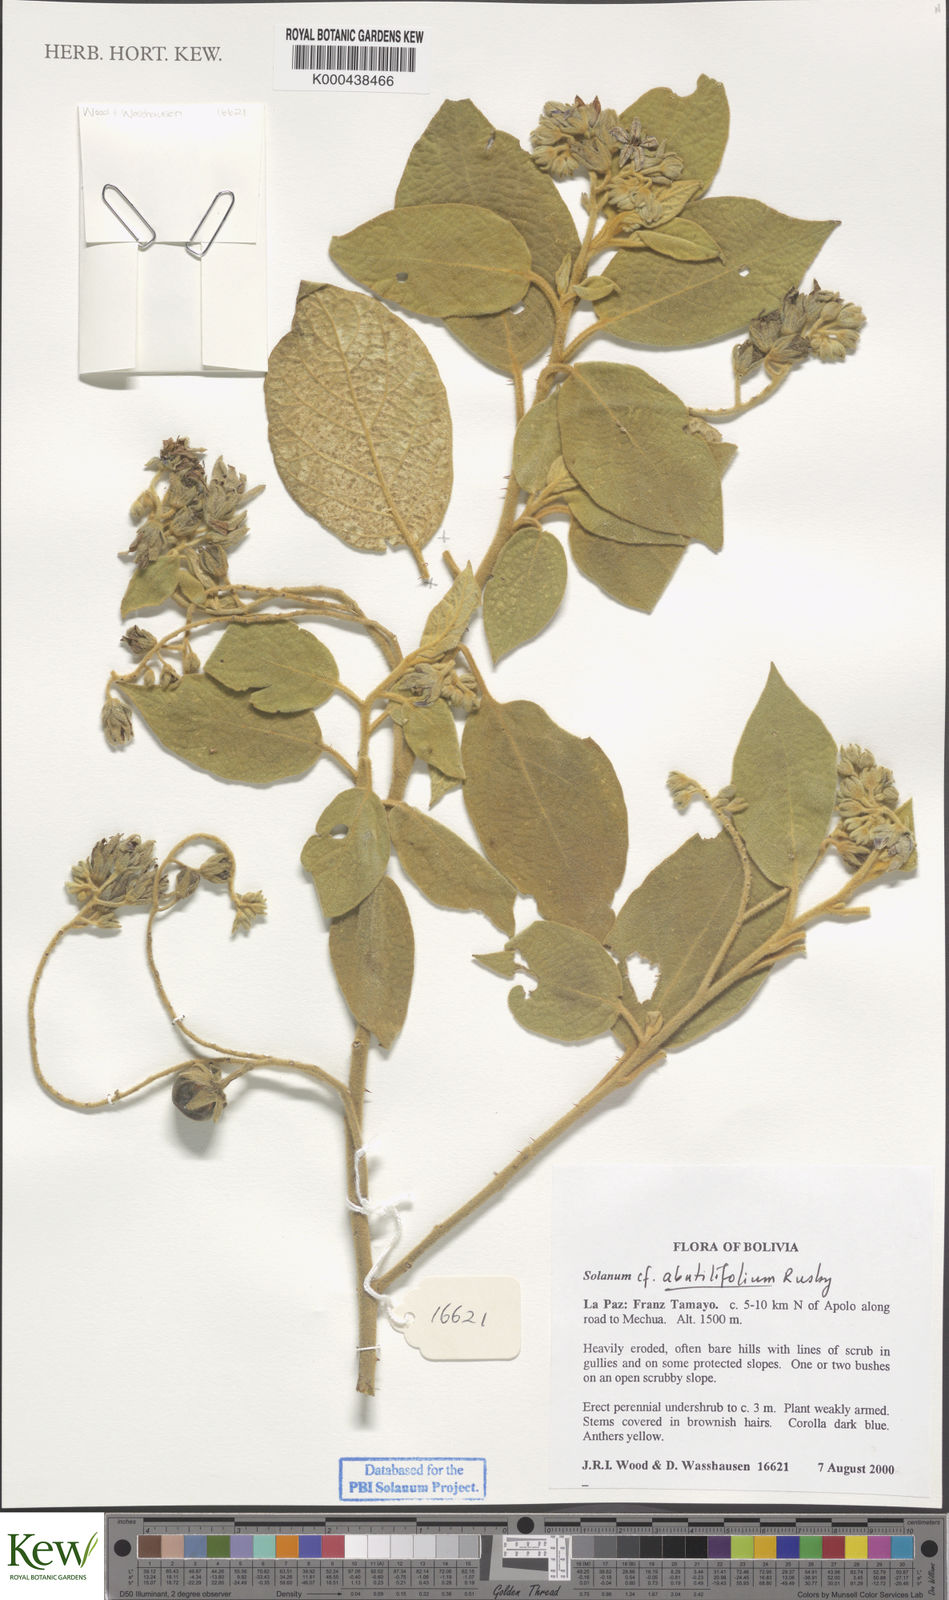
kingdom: Plantae
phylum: Tracheophyta
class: Magnoliopsida
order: Solanales
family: Solanaceae
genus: Solanum
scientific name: Solanum abutilifolium
